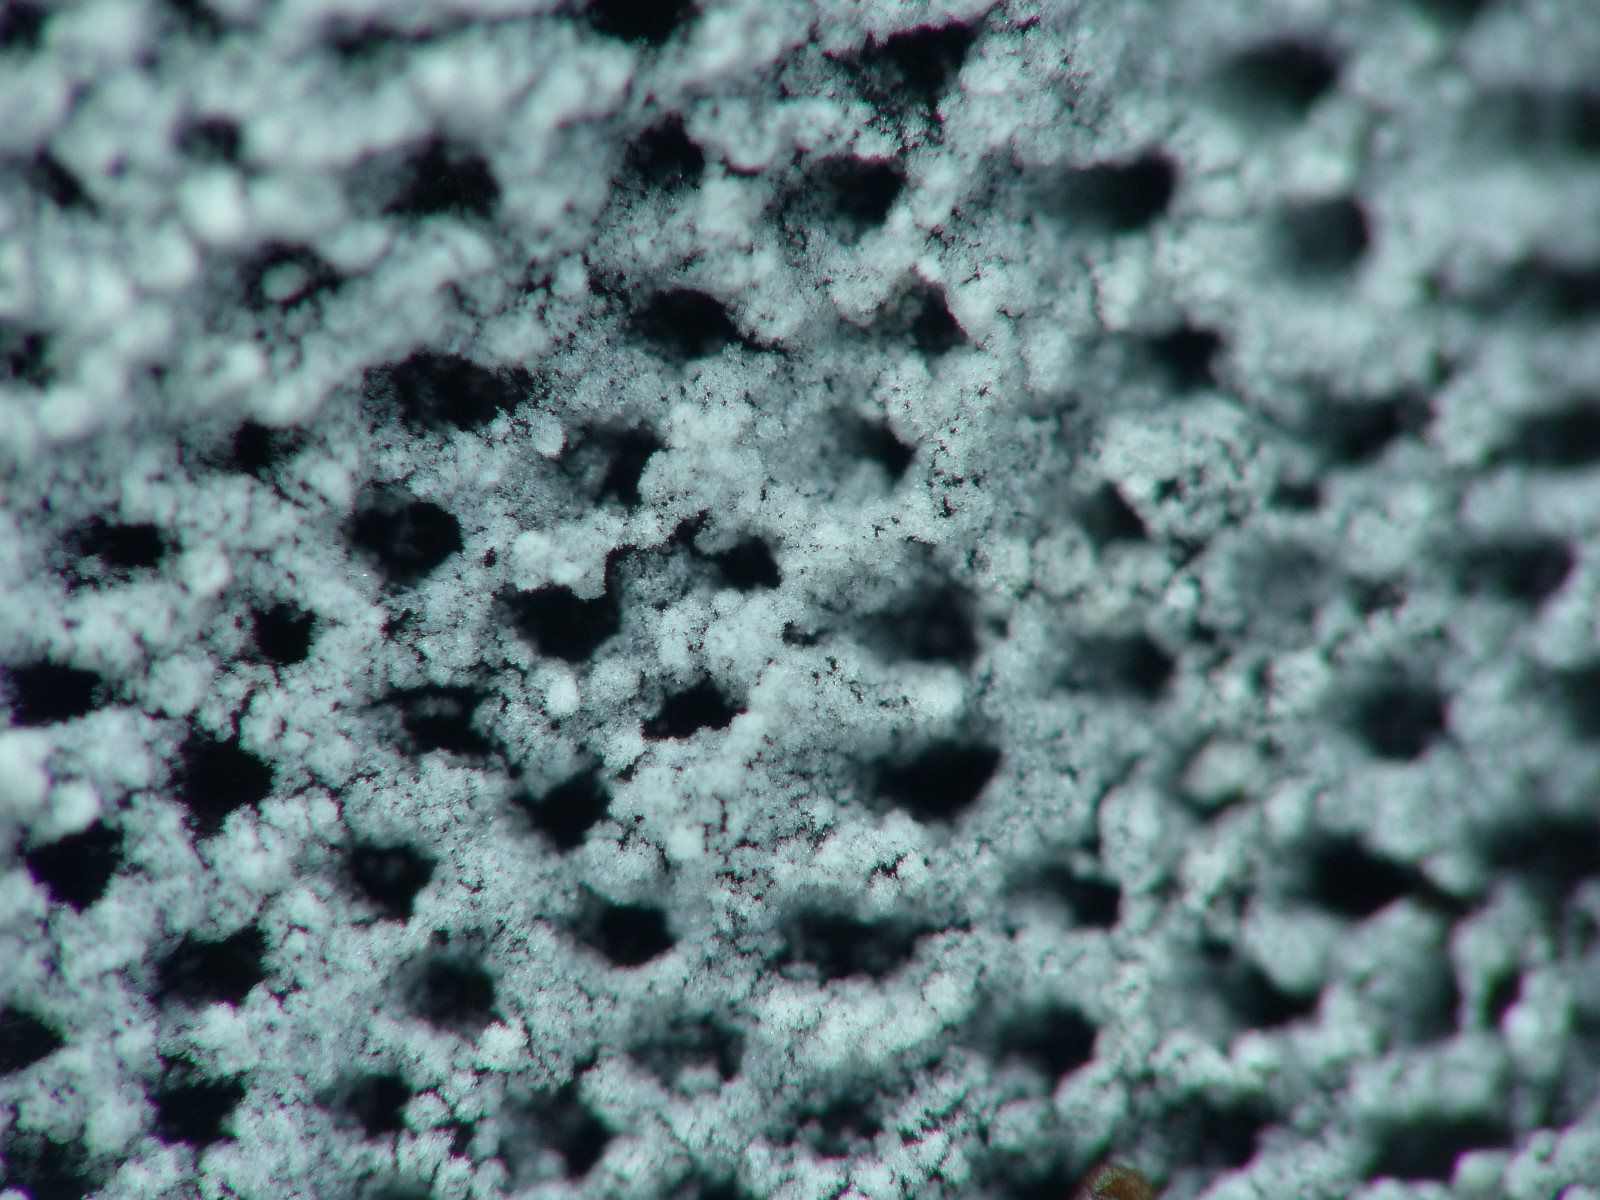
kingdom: Fungi
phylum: Basidiomycota
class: Agaricomycetes
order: Cantharellales
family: Hydnaceae
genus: Sistotrema
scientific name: Sistotrema brinkmannii
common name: bønnesporet kroneskorpe
